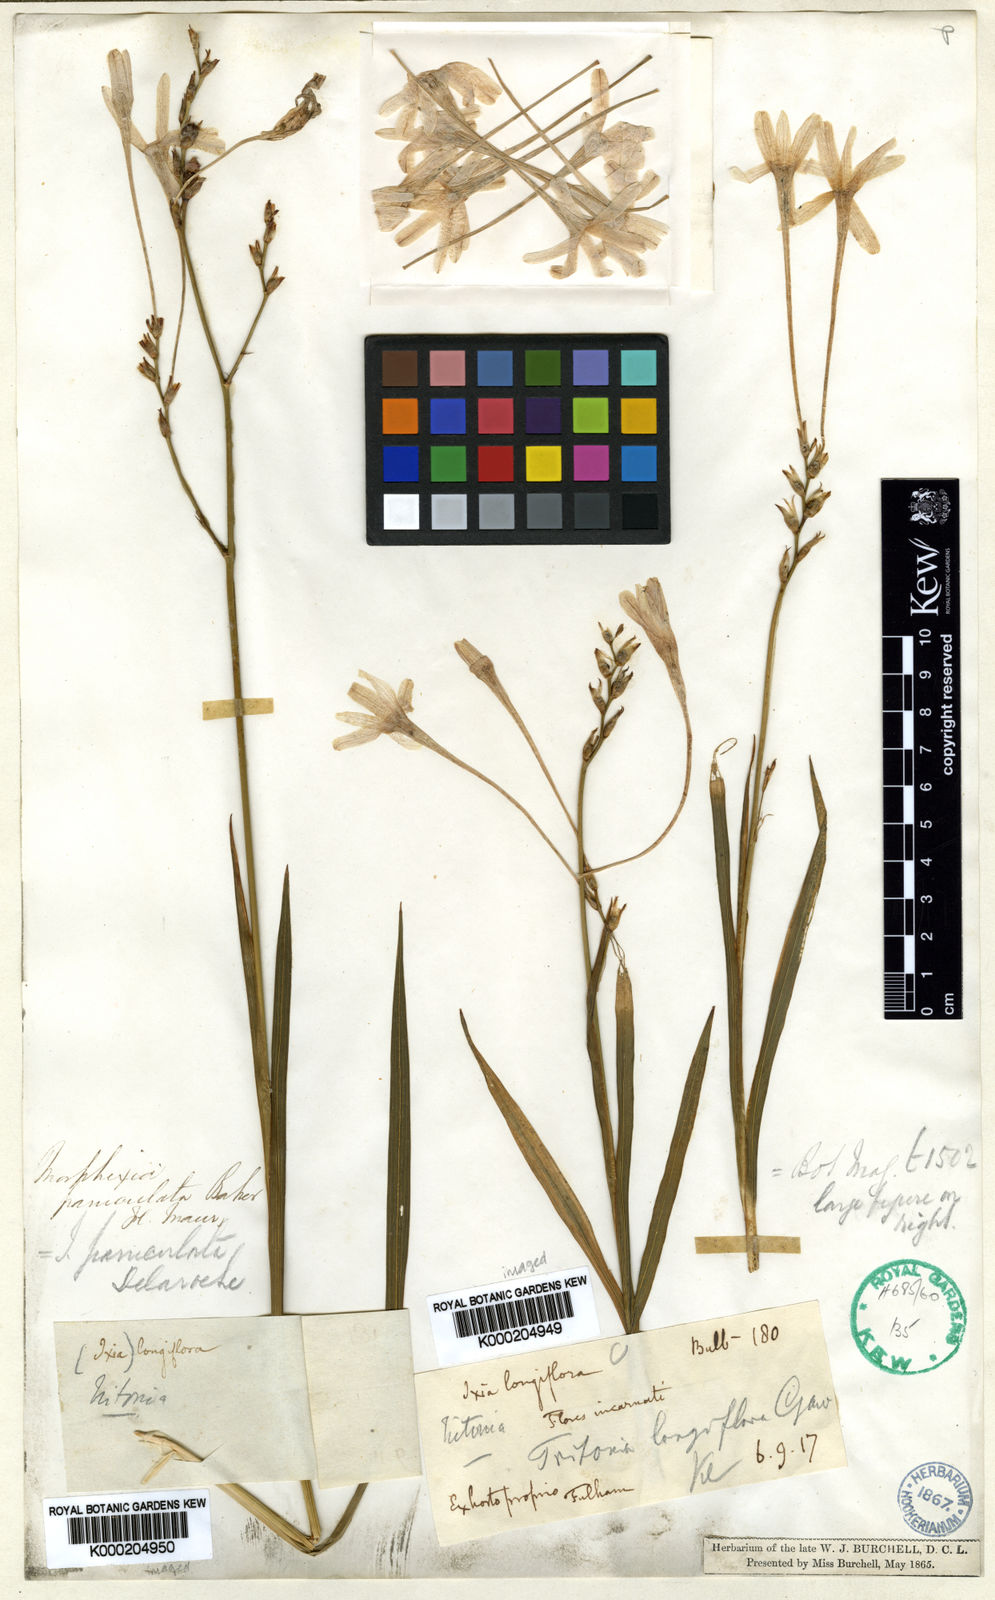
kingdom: Plantae
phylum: Tracheophyta
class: Liliopsida
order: Asparagales
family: Iridaceae
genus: Ixia
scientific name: Ixia paniculata
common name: Tubular corn-lily
